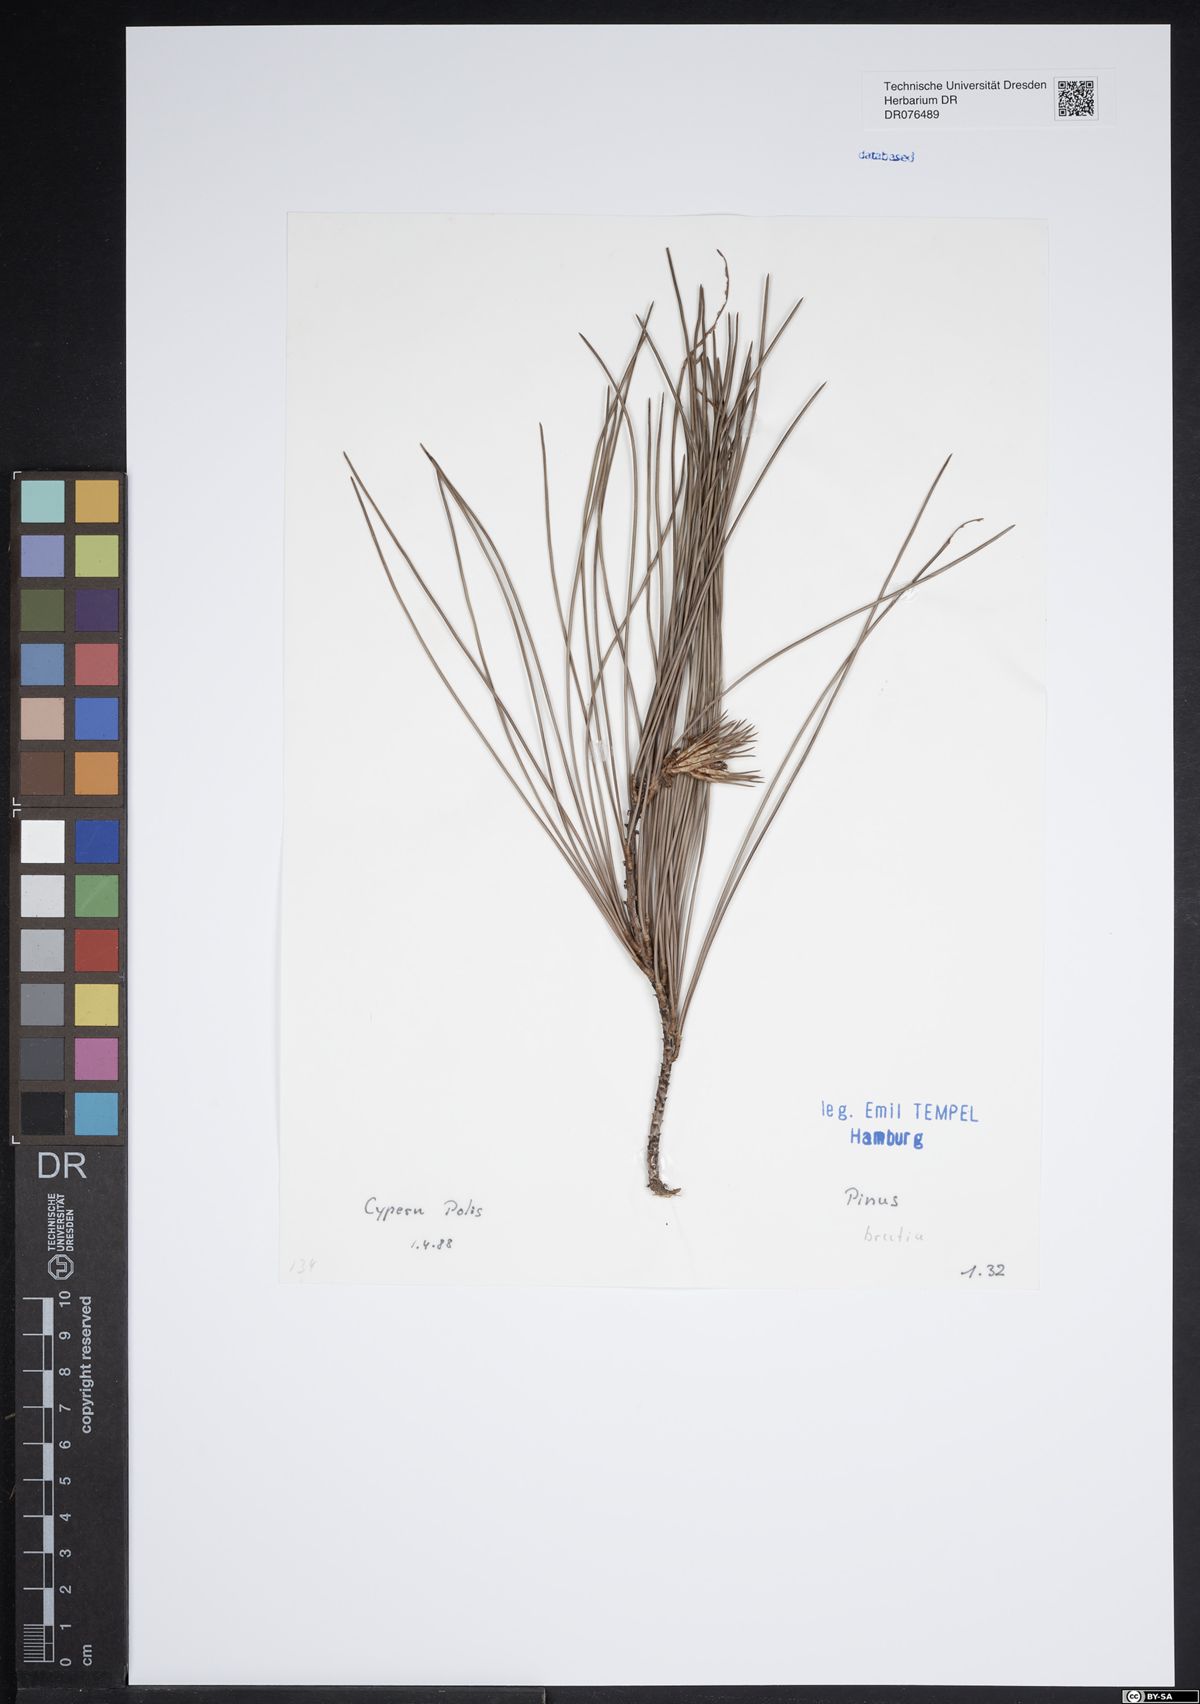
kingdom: Plantae
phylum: Tracheophyta
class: Pinopsida
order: Pinales
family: Pinaceae
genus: Pinus
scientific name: Pinus brutia
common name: Turkish pine
